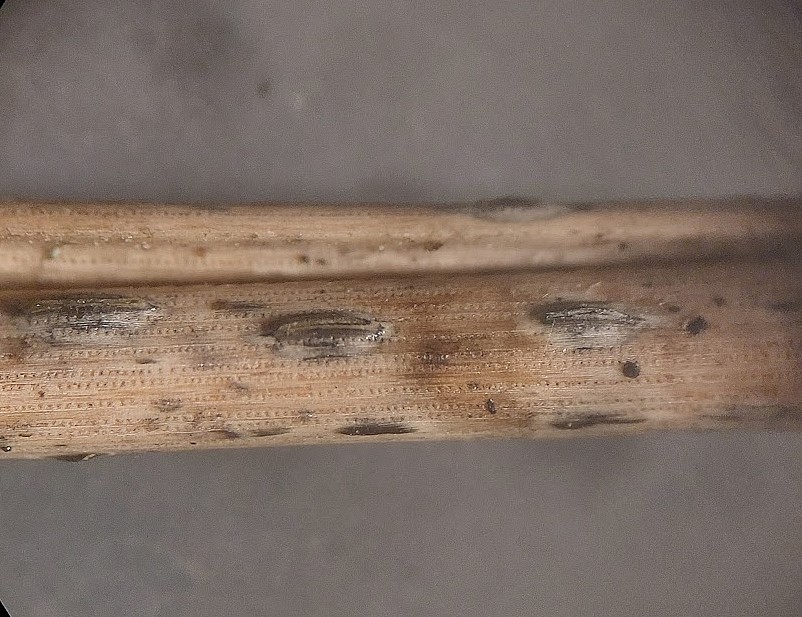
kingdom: Fungi
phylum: Ascomycota
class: Leotiomycetes
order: Rhytismatales
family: Rhytismataceae
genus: Lophodermium
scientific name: Lophodermium seditiosum
